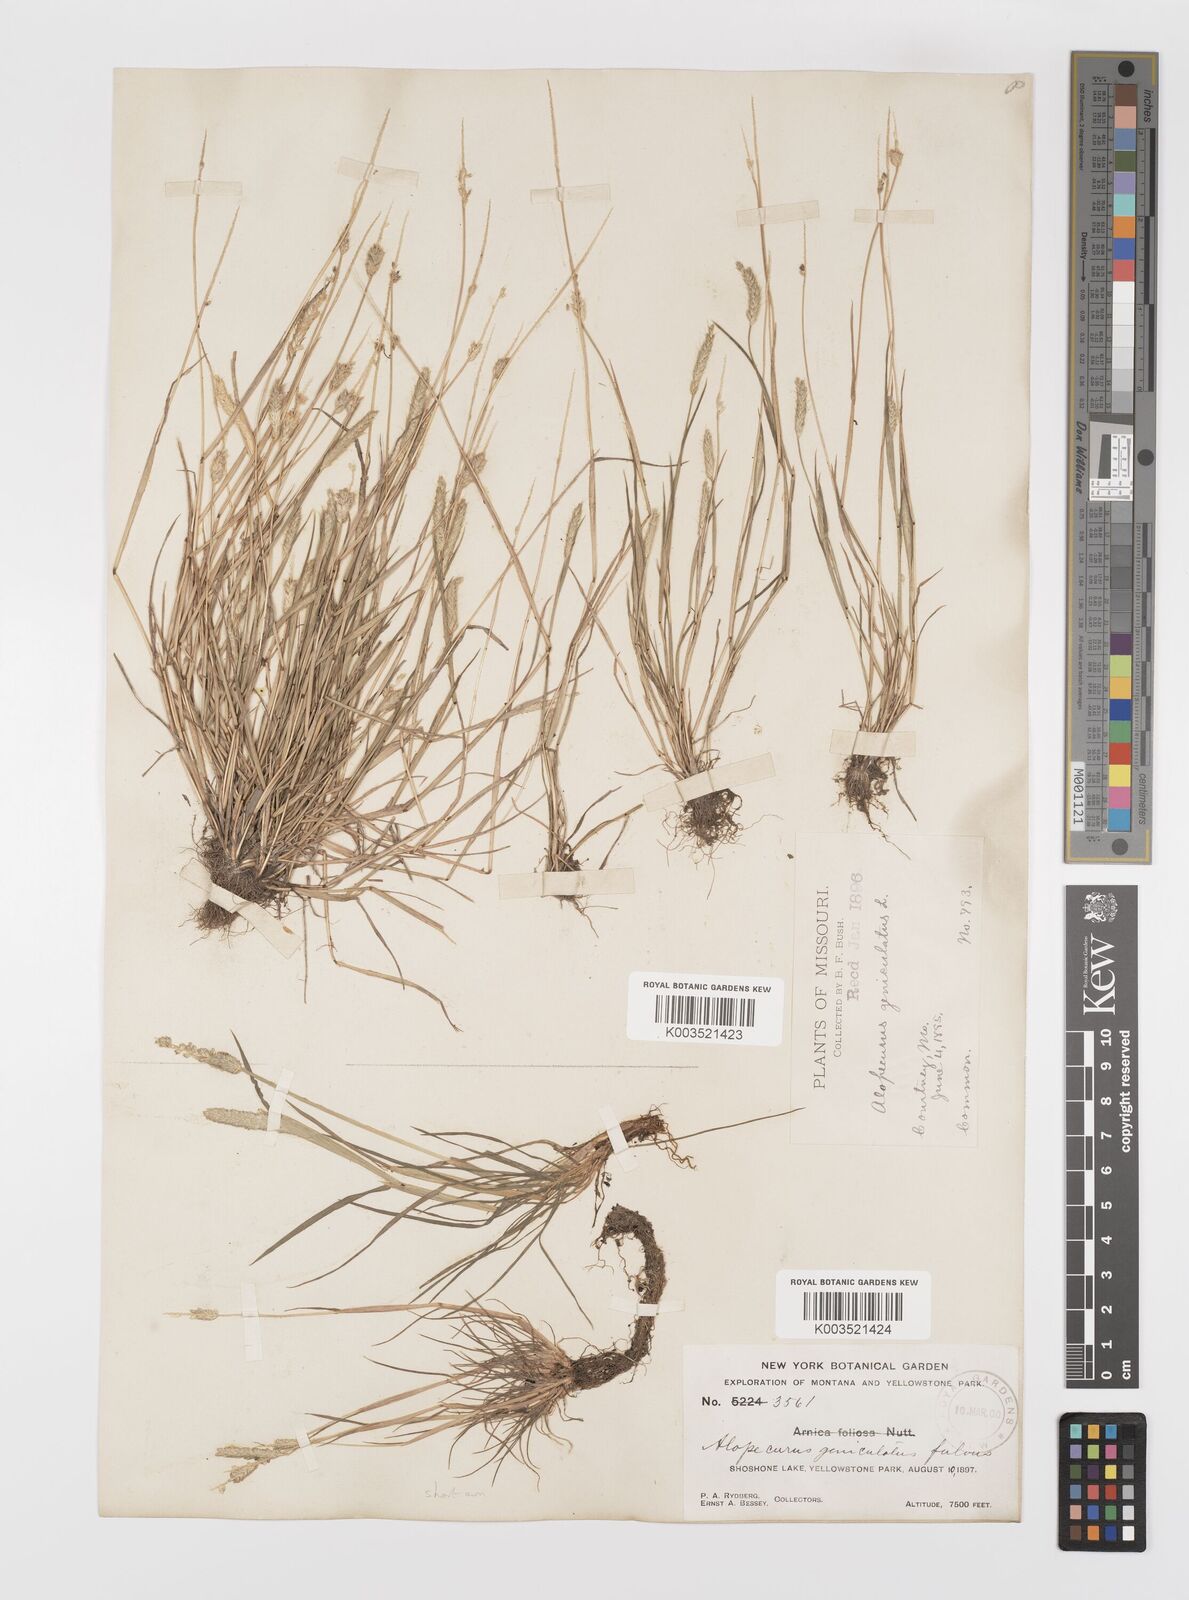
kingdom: Plantae
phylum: Tracheophyta
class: Liliopsida
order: Poales
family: Poaceae
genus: Alopecurus
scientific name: Alopecurus carolinianus
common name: Tufted foxtail
